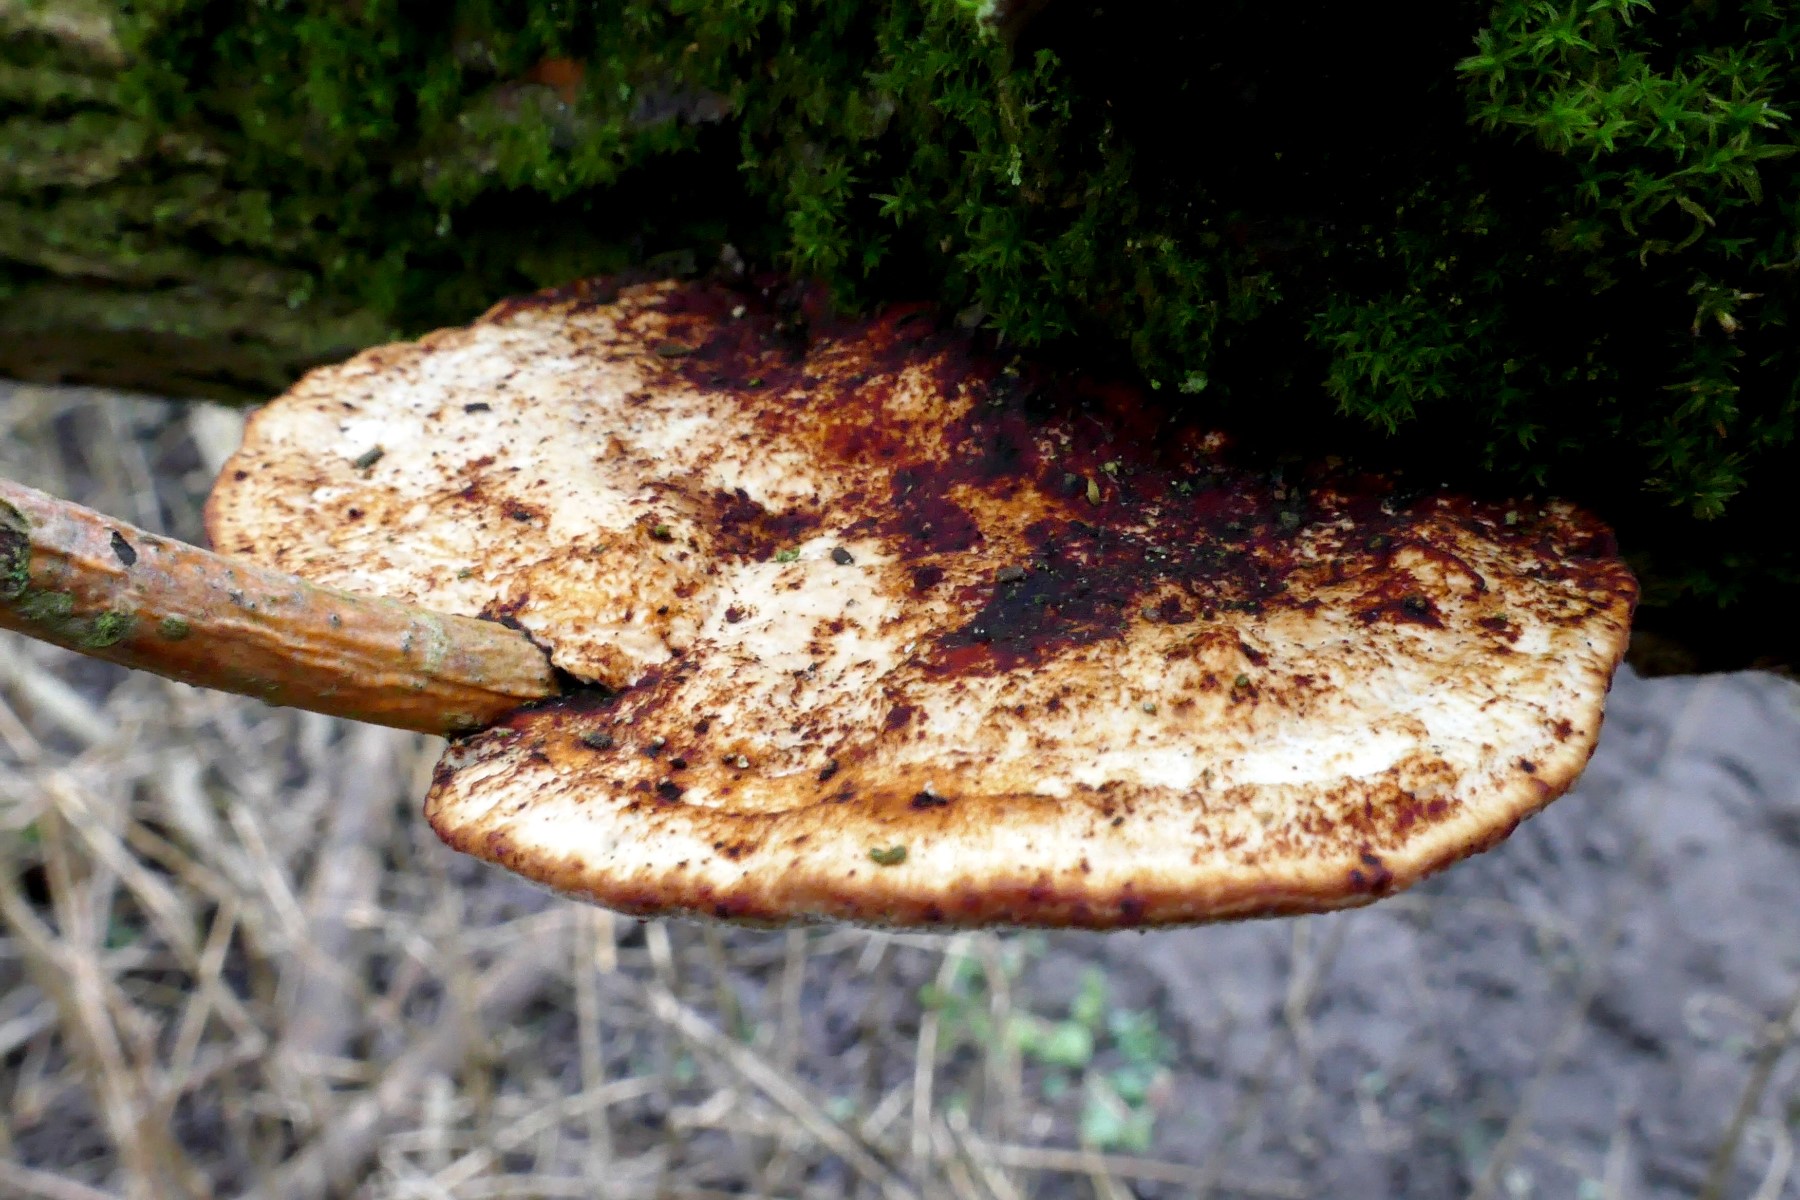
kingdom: Fungi
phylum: Basidiomycota
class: Agaricomycetes
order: Polyporales
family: Polyporaceae
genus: Daedaleopsis
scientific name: Daedaleopsis confragosa
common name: rødmende læderporesvamp
